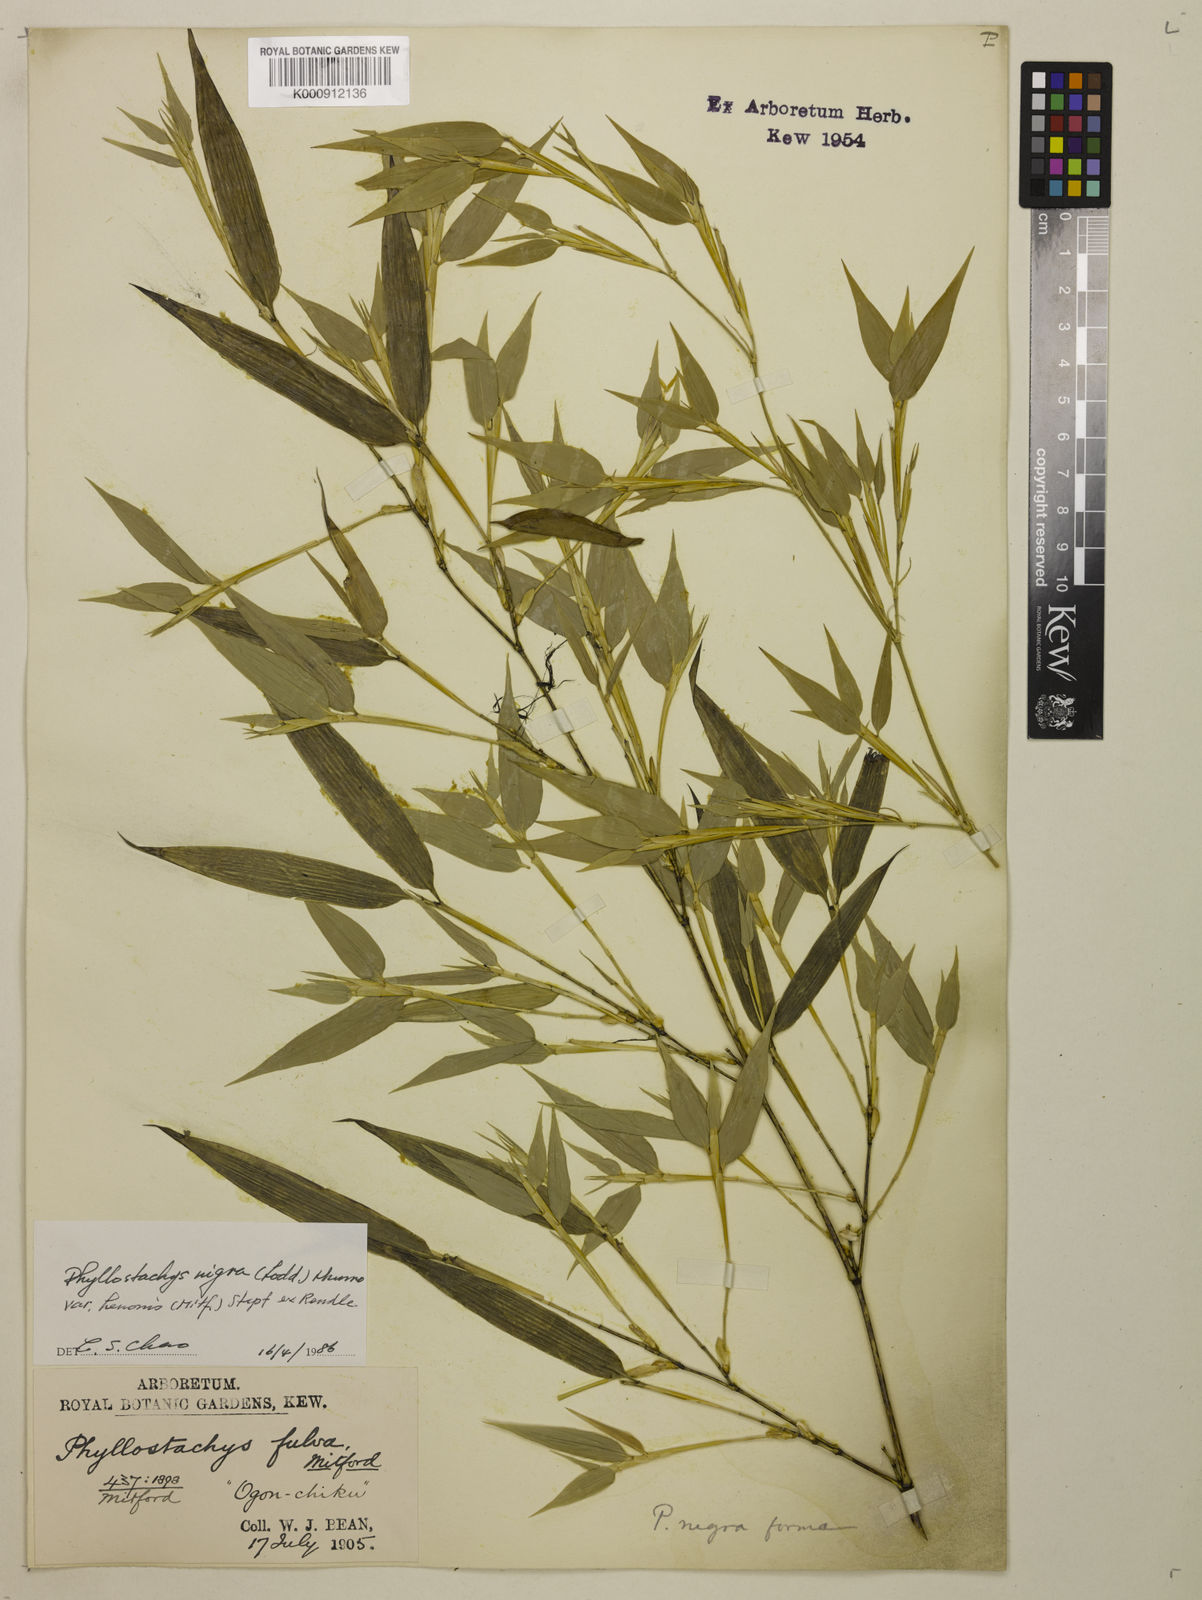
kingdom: Plantae
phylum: Tracheophyta
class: Liliopsida
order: Poales
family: Poaceae
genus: Phyllostachys
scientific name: Phyllostachys nigra
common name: Black bamboo
